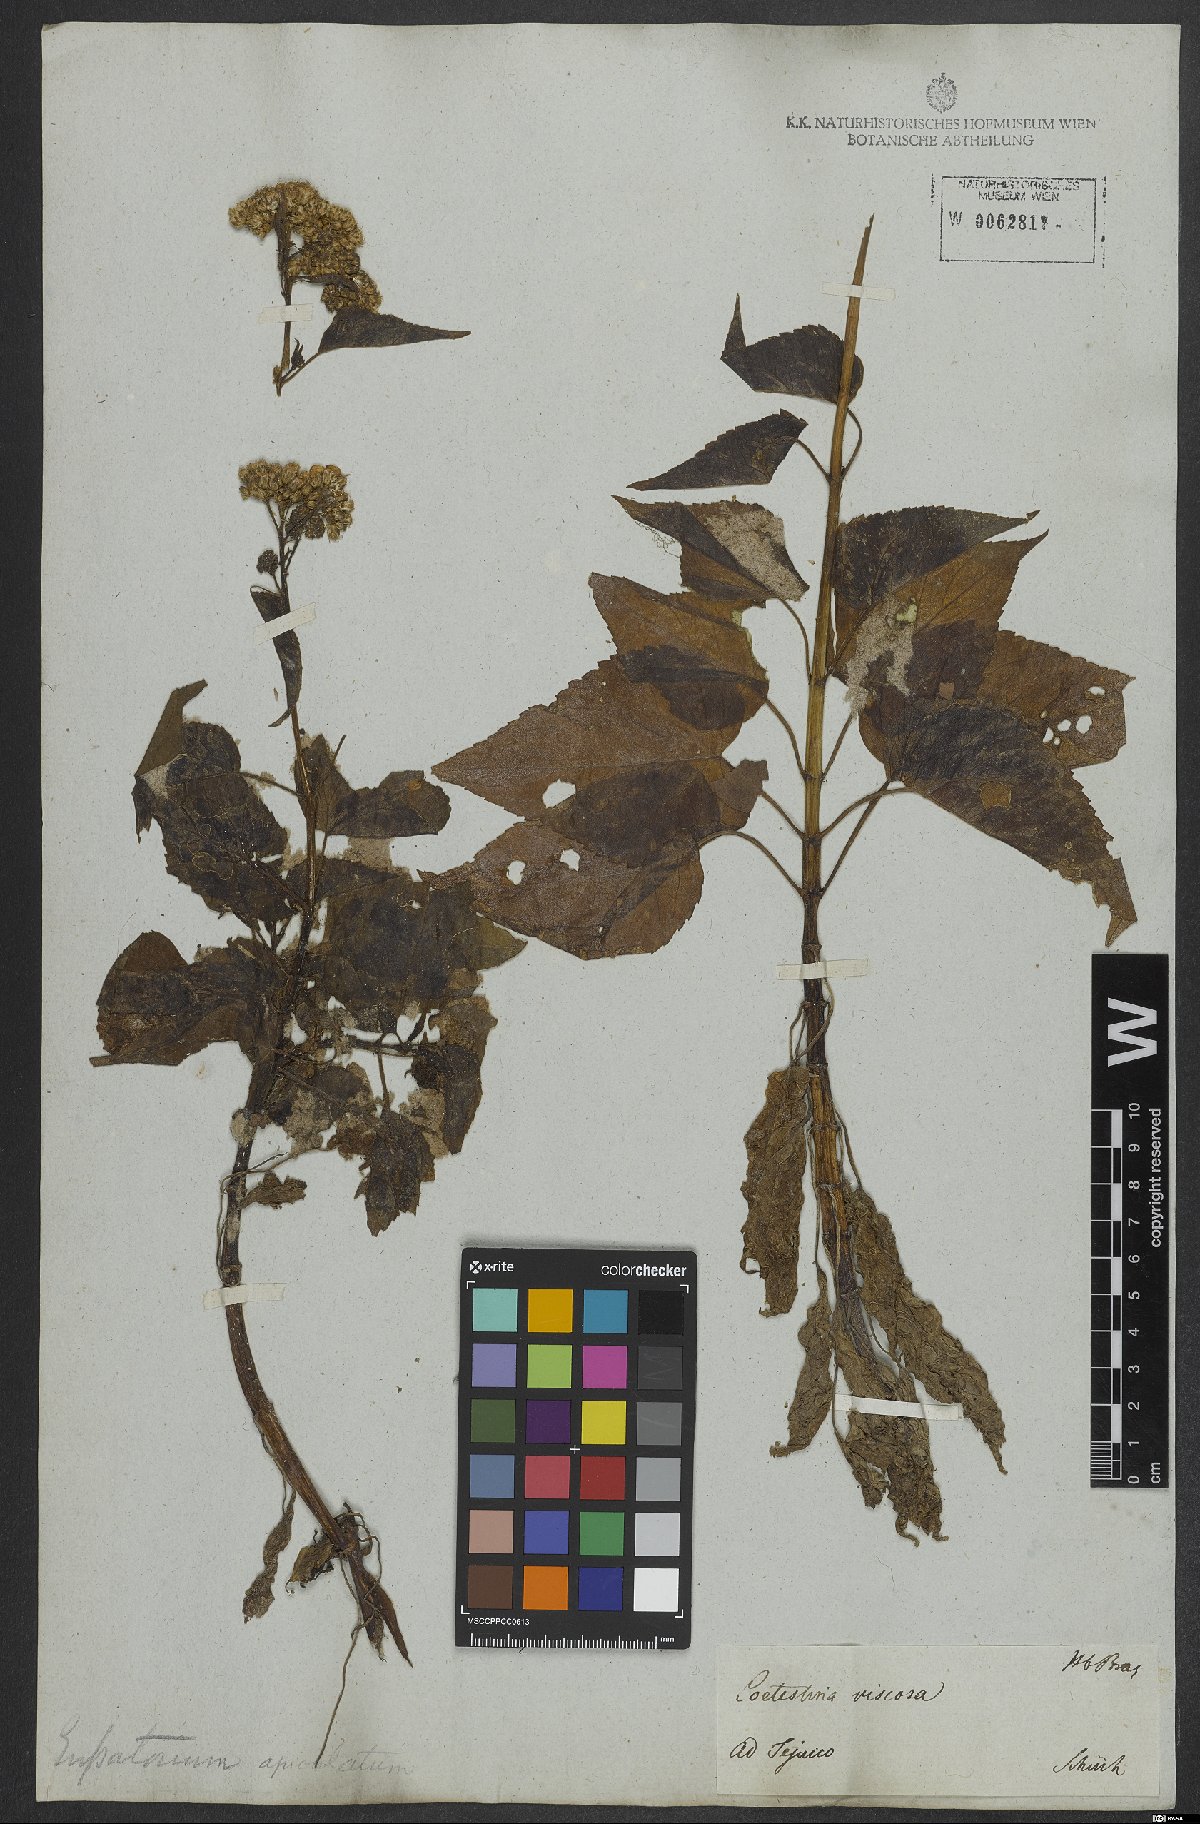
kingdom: Plantae
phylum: Tracheophyta
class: Magnoliopsida
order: Asterales
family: Asteraceae
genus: Barrosoa
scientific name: Barrosoa apiculata
